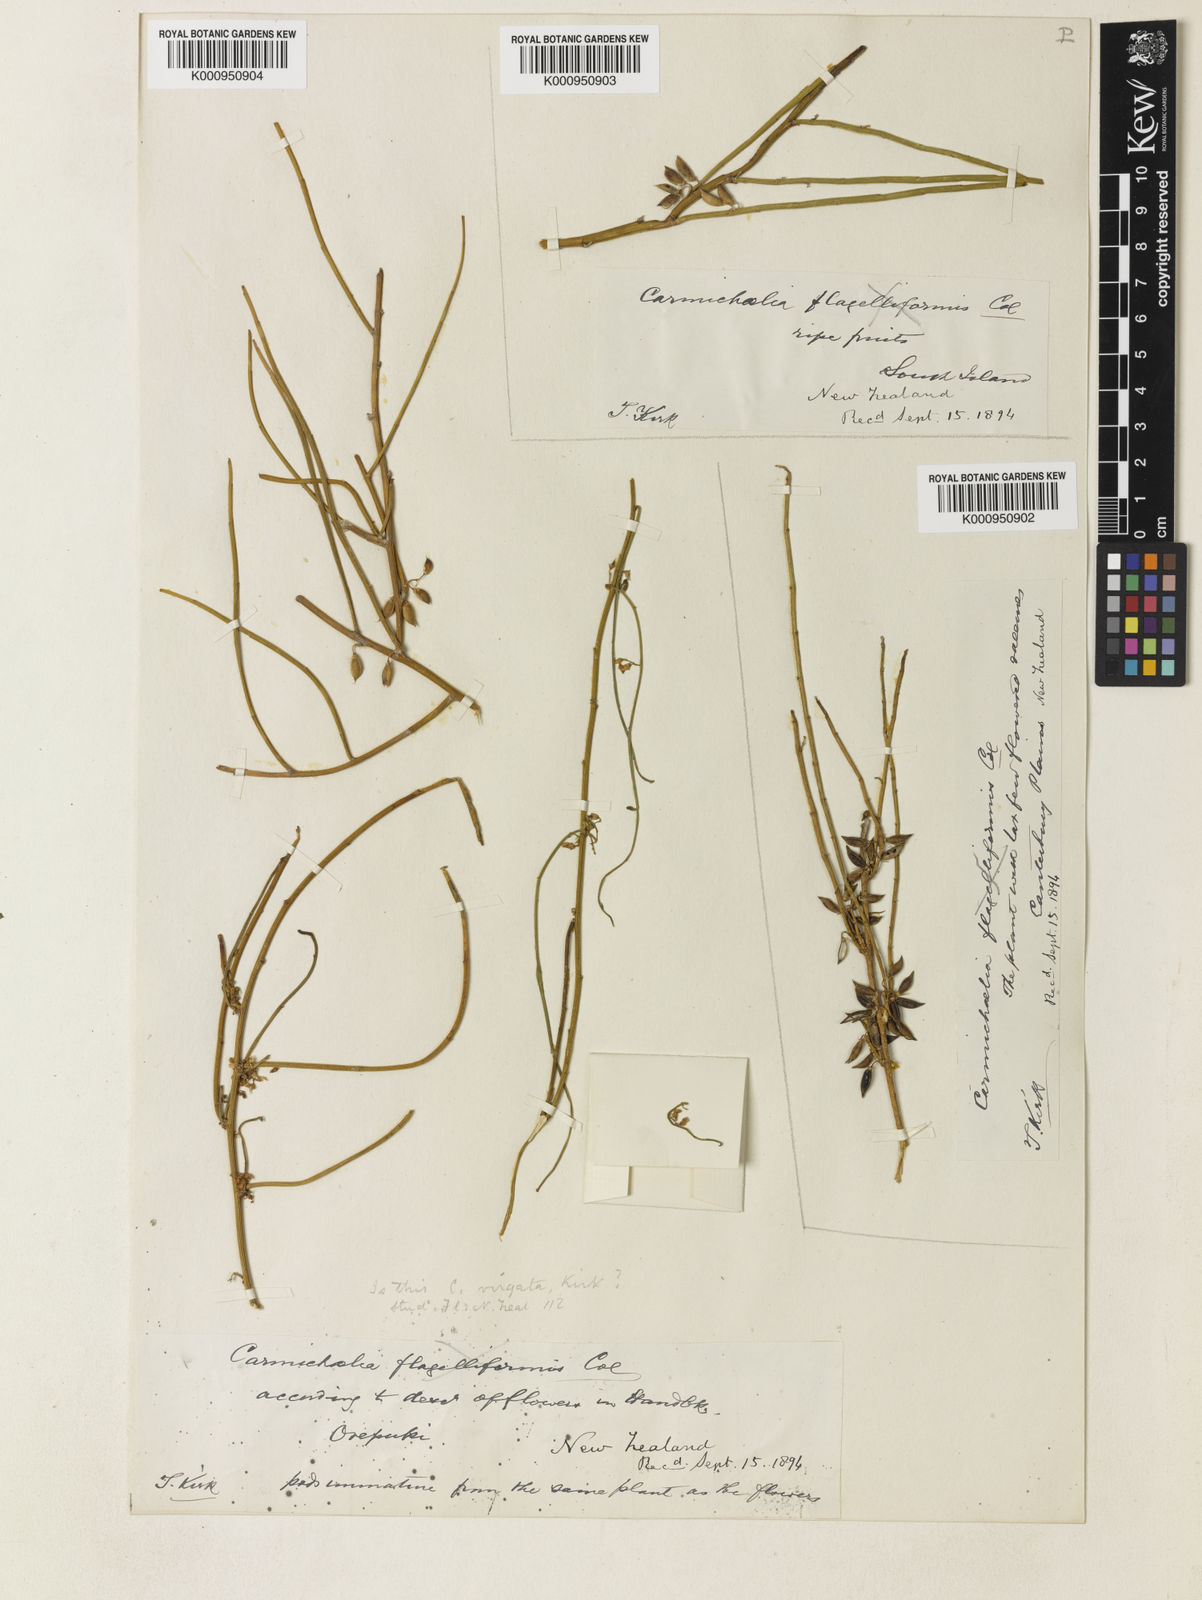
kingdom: Plantae
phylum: Tracheophyta
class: Magnoliopsida
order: Fabales
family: Fabaceae
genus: Carmichaelia
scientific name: Carmichaelia petriei
